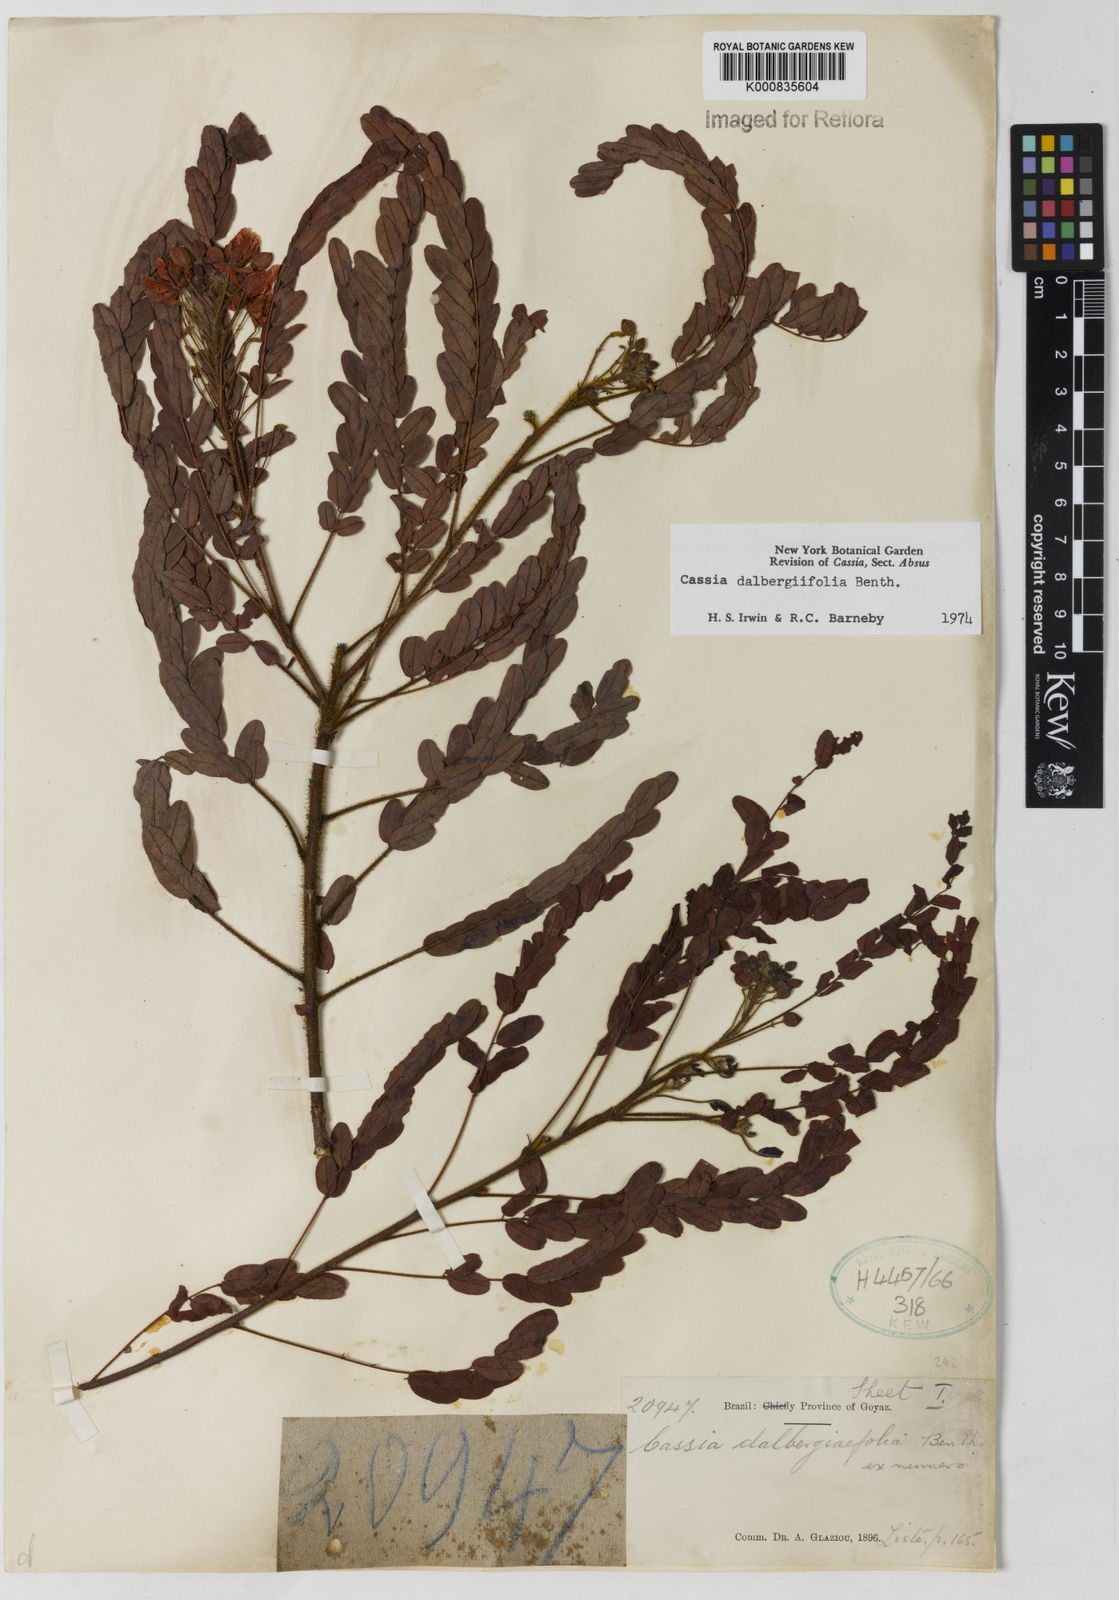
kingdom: Plantae
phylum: Tracheophyta
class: Magnoliopsida
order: Fabales
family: Fabaceae
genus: Chamaecrista
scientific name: Chamaecrista dalbergiifolia
